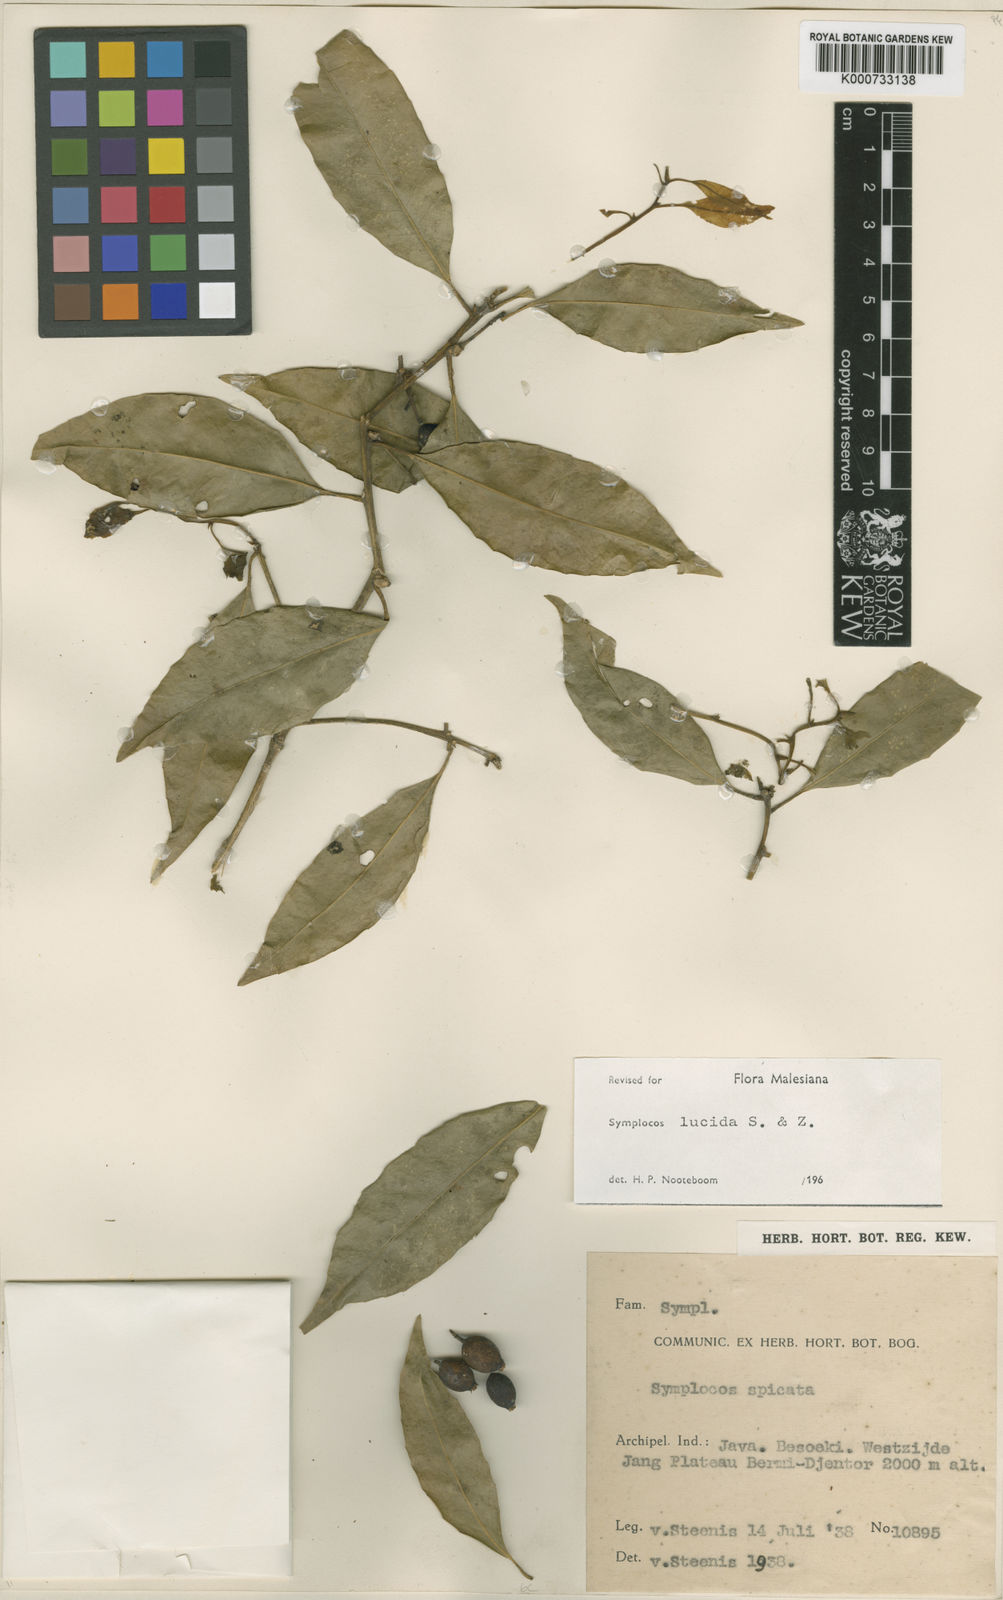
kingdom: Plantae
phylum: Tracheophyta
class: Magnoliopsida
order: Ericales
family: Symplocaceae
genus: Symplocos
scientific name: Symplocos
